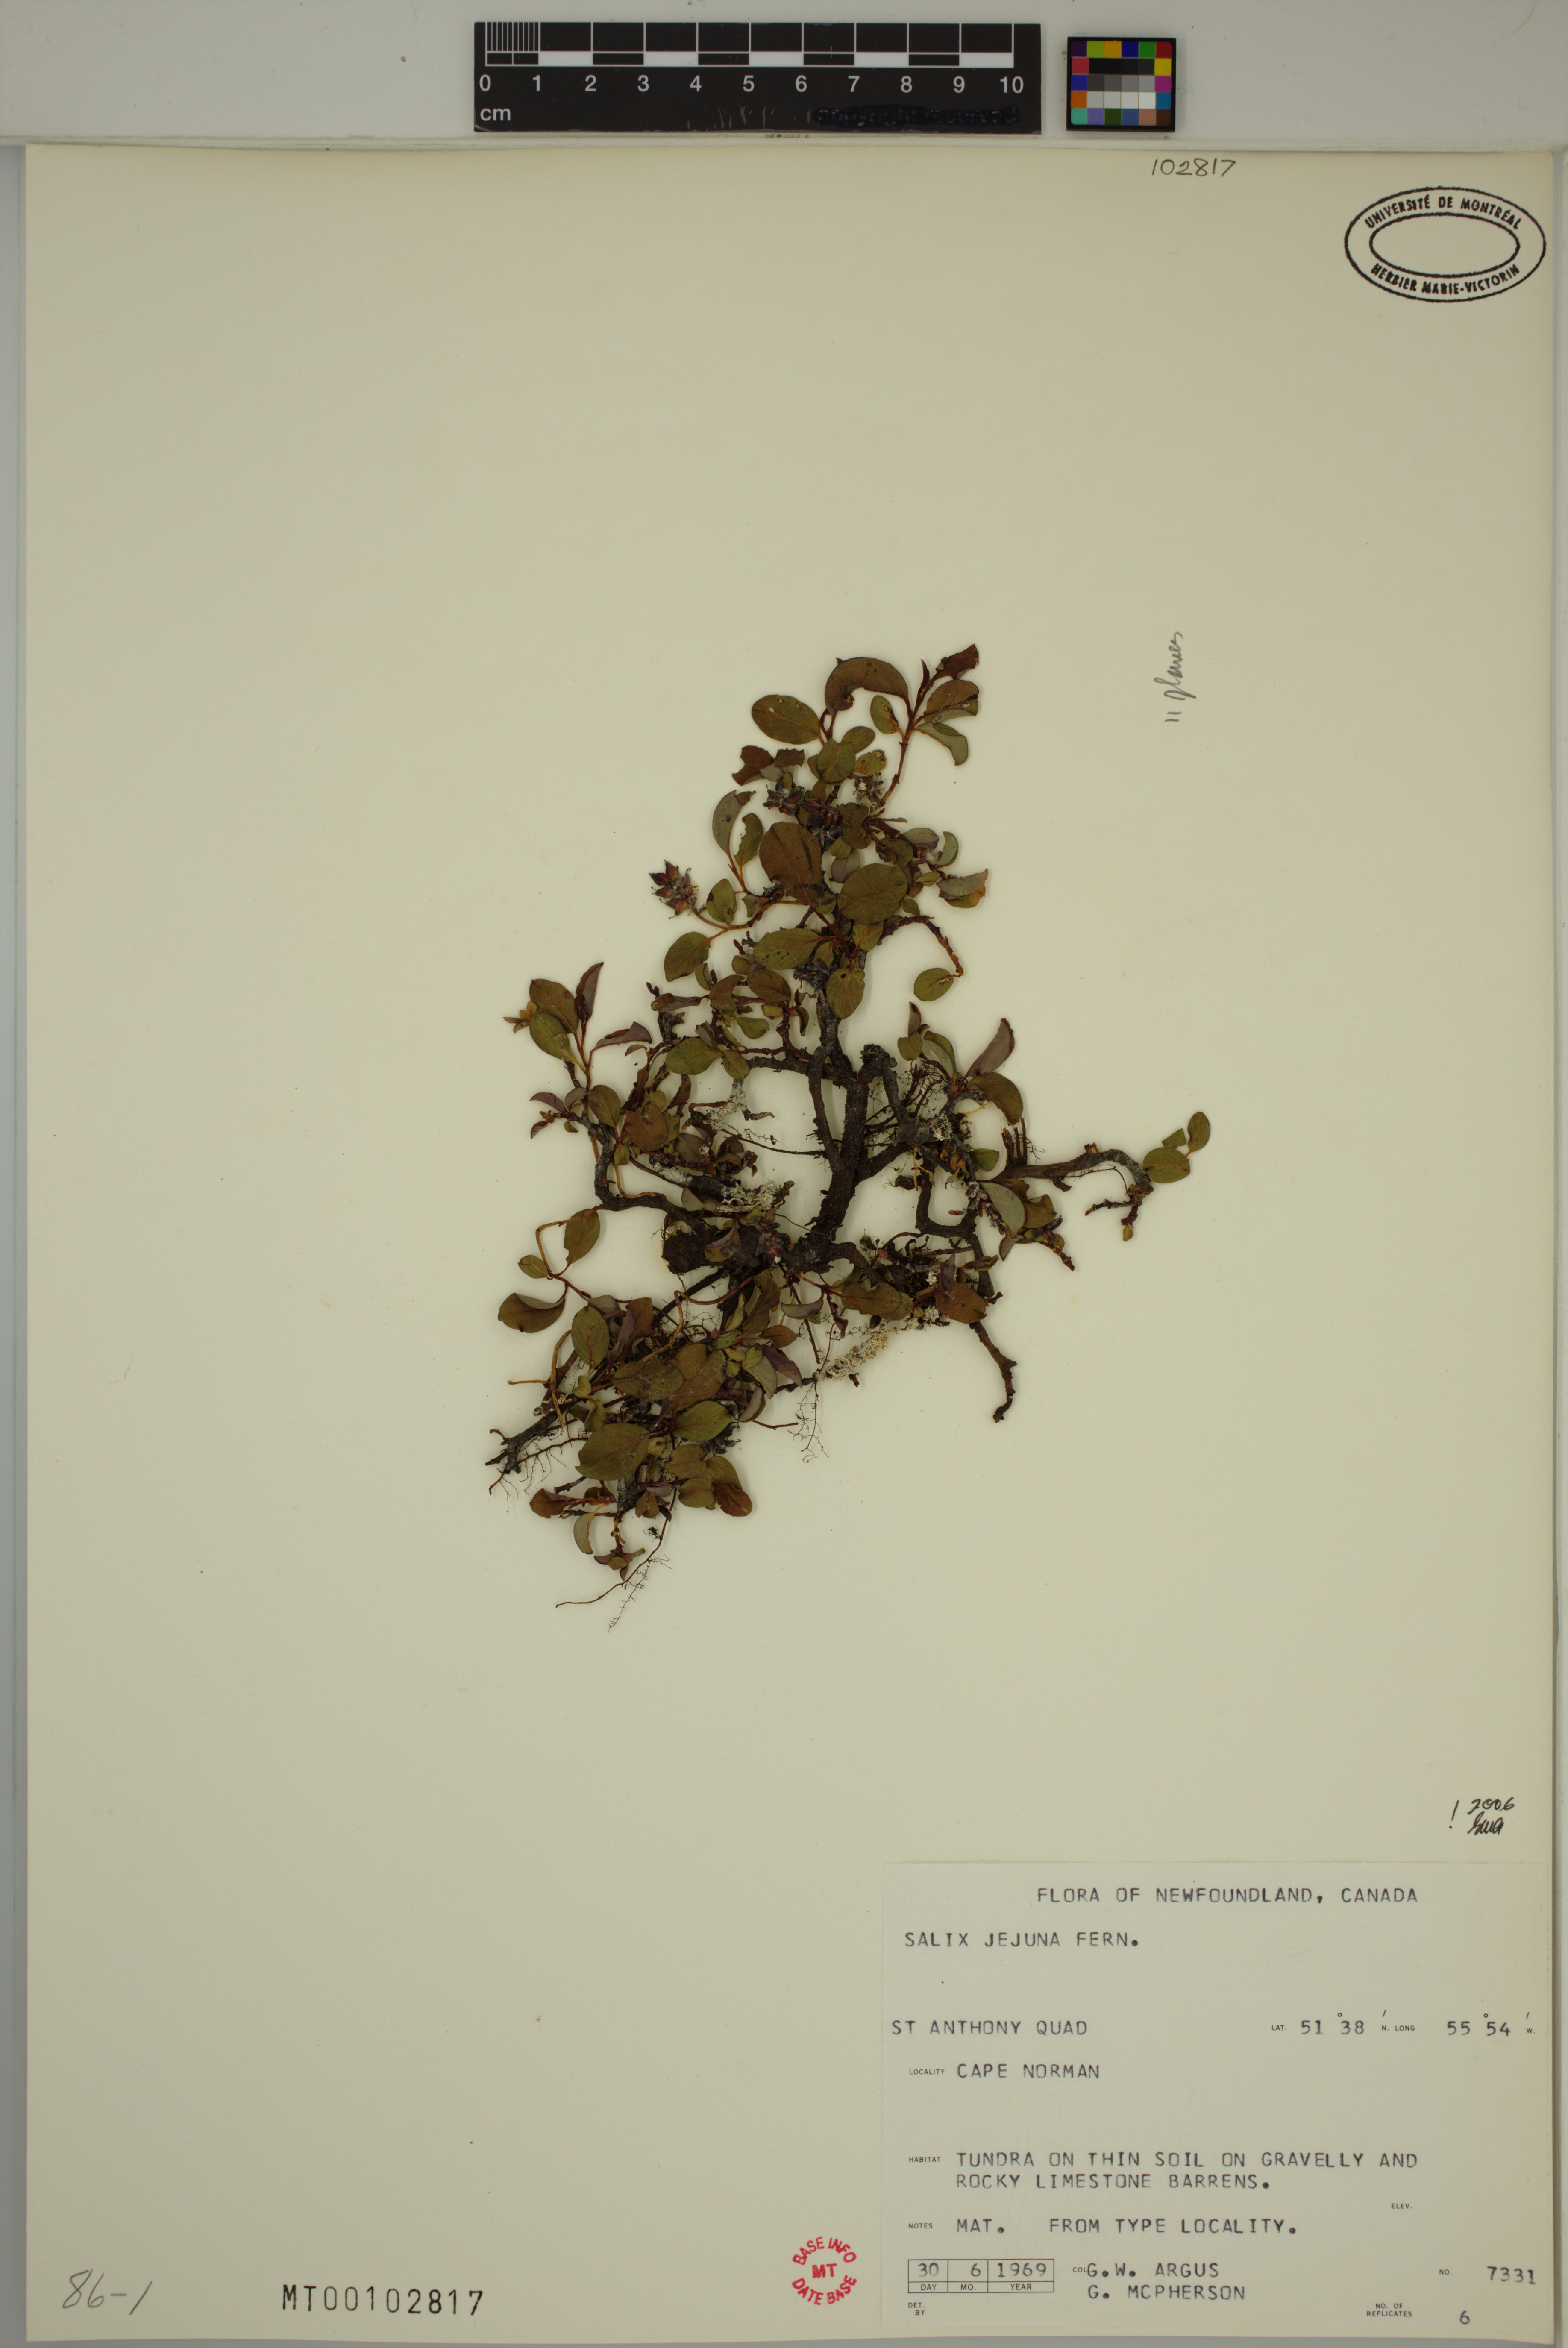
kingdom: Plantae
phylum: Tracheophyta
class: Magnoliopsida
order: Malpighiales
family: Salicaceae
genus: Salix
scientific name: Salix jejuna
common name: Belle isle dwarf willow
